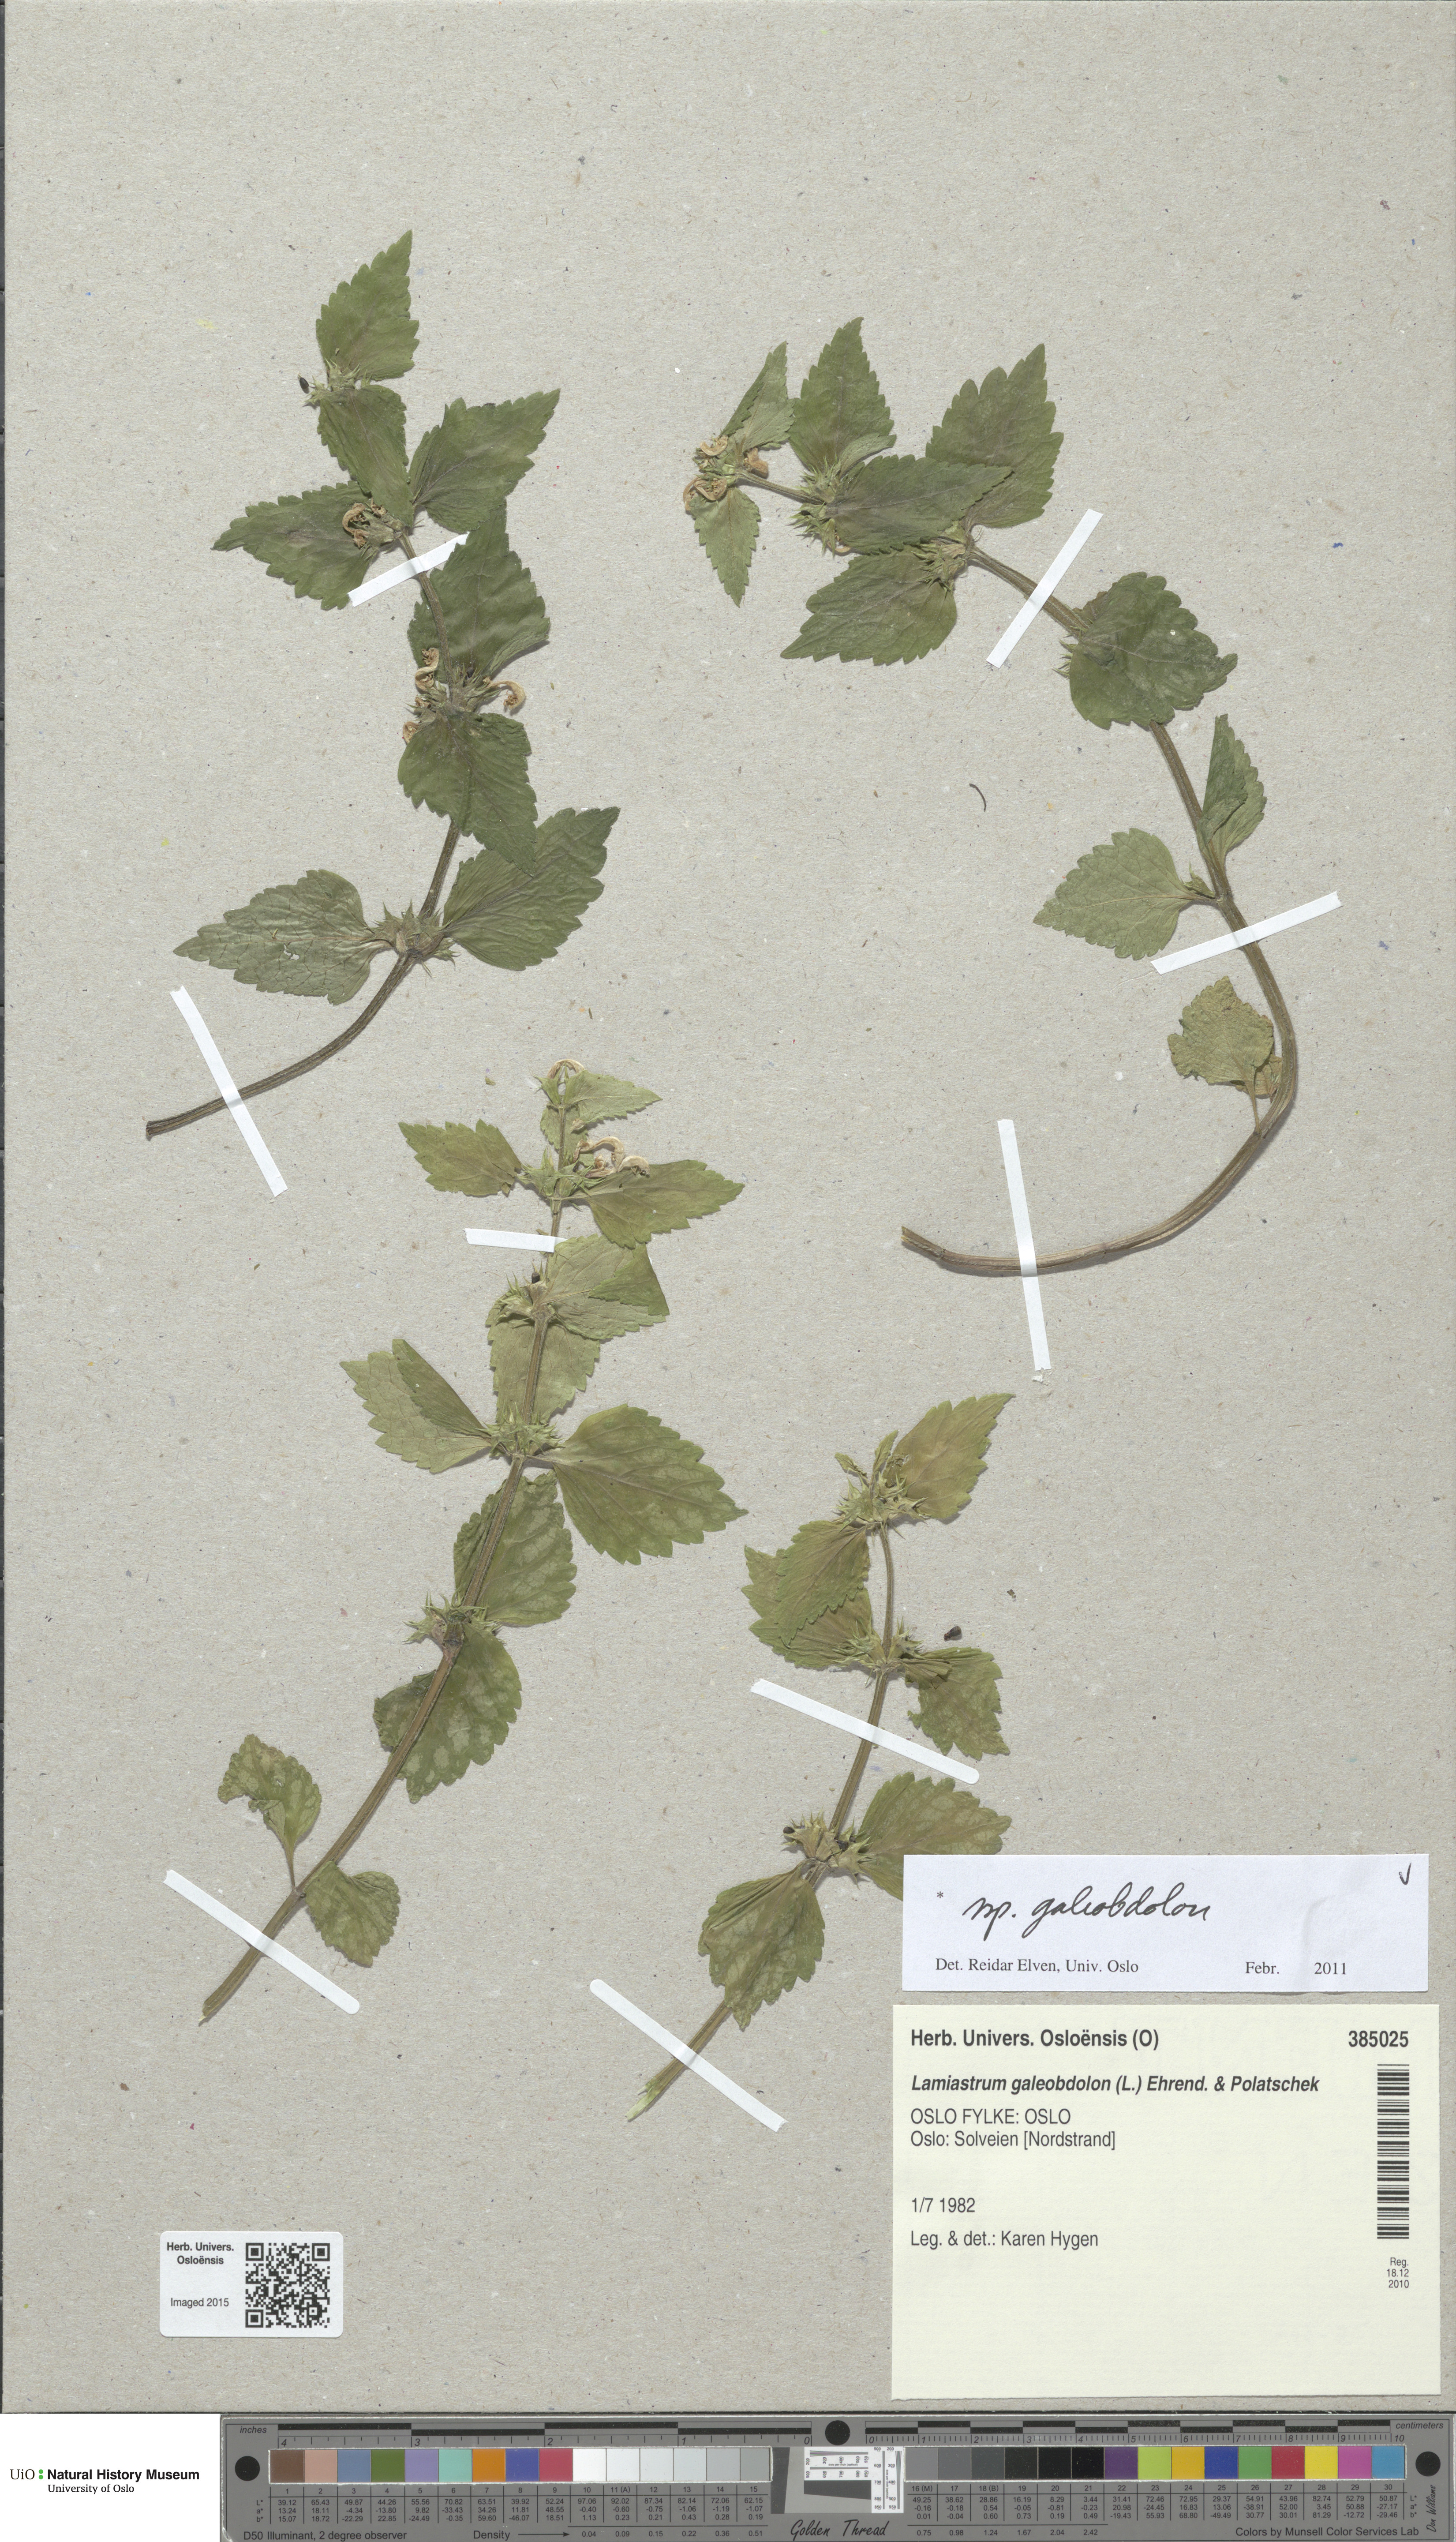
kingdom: Plantae
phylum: Tracheophyta
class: Magnoliopsida
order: Lamiales
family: Lamiaceae
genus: Lamium
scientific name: Lamium galeobdolon
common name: Yellow archangel
